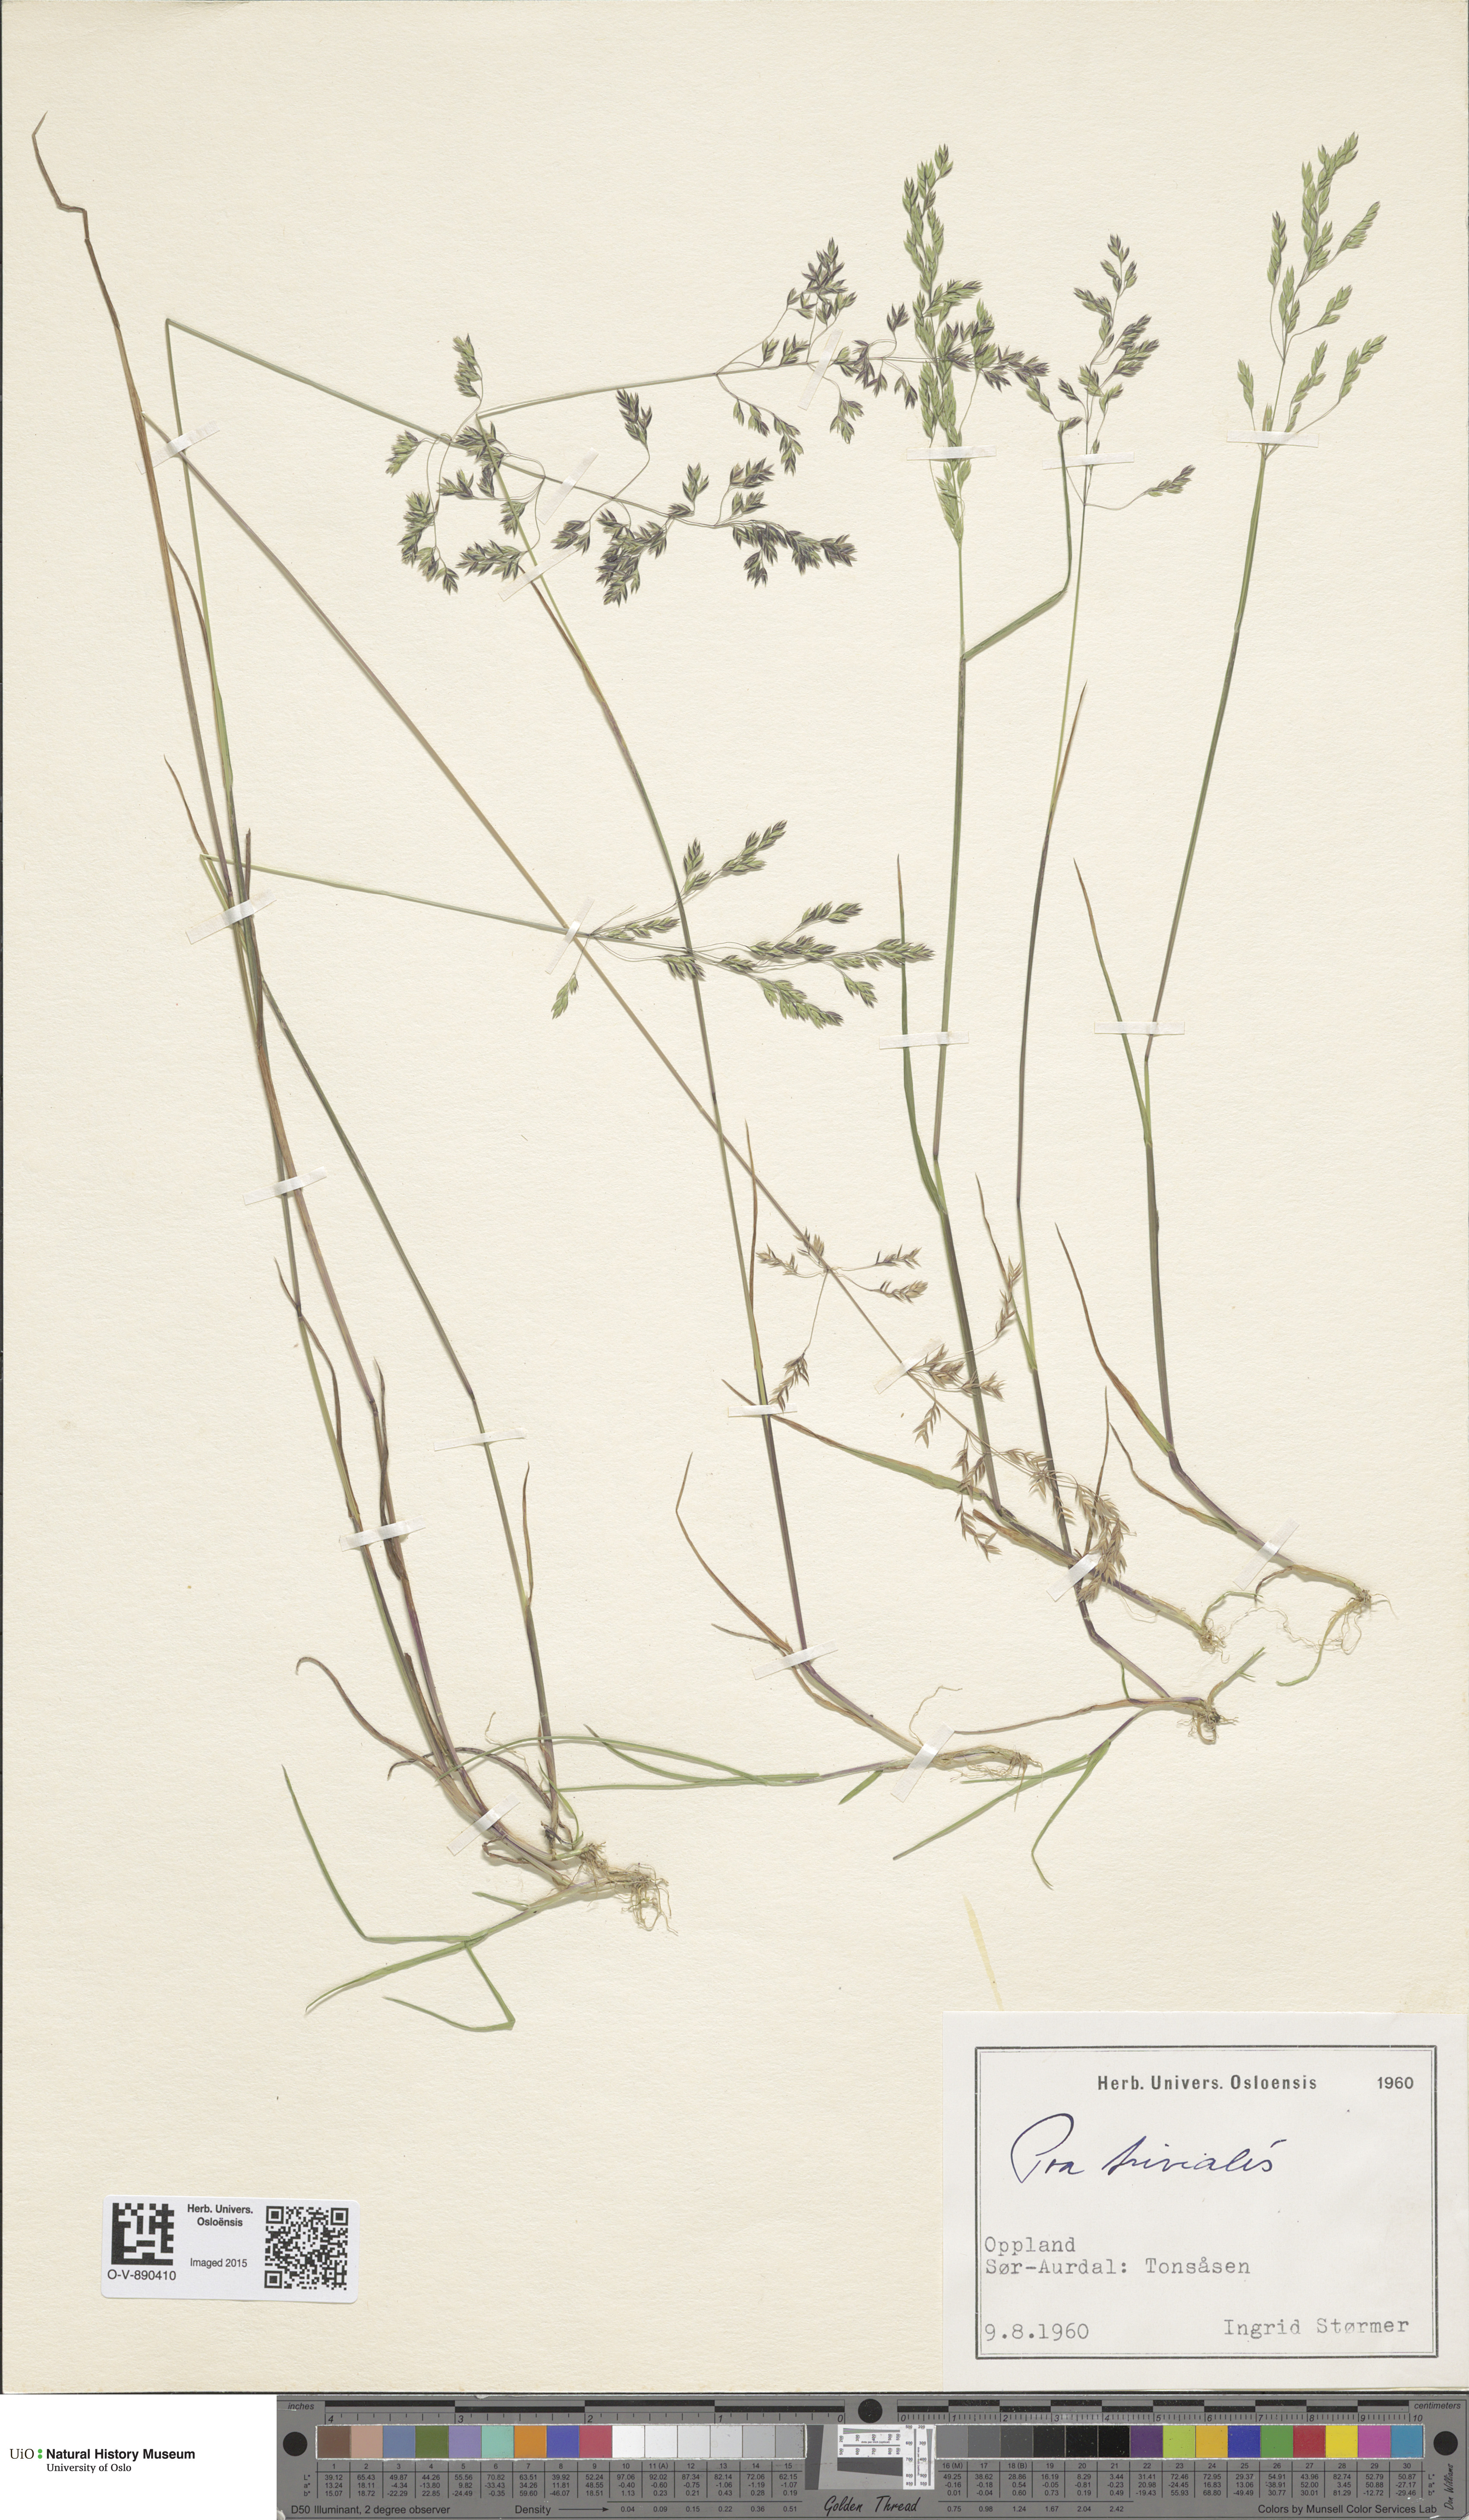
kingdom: Plantae
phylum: Tracheophyta
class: Liliopsida
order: Poales
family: Poaceae
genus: Poa
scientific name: Poa trivialis
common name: Rough bluegrass
